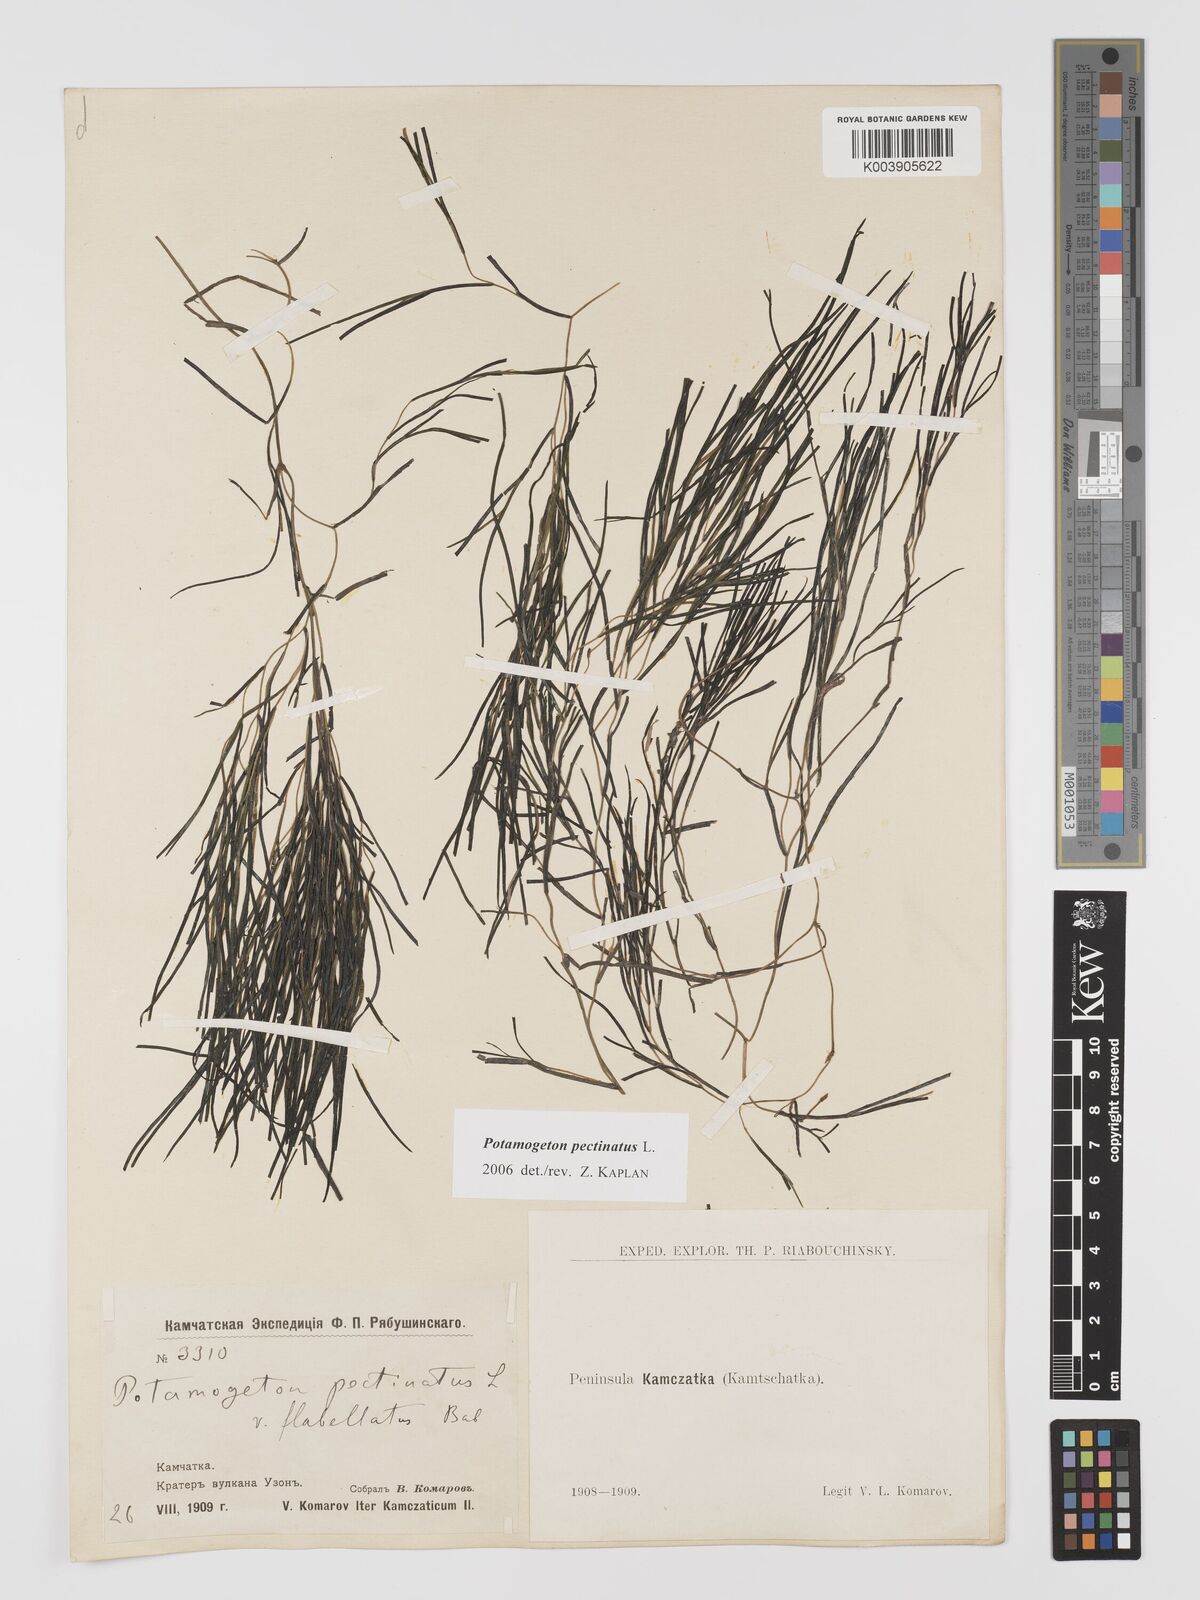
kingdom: Plantae
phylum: Tracheophyta
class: Liliopsida
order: Alismatales
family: Potamogetonaceae
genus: Stuckenia
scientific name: Stuckenia pectinata
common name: Sago pondweed
